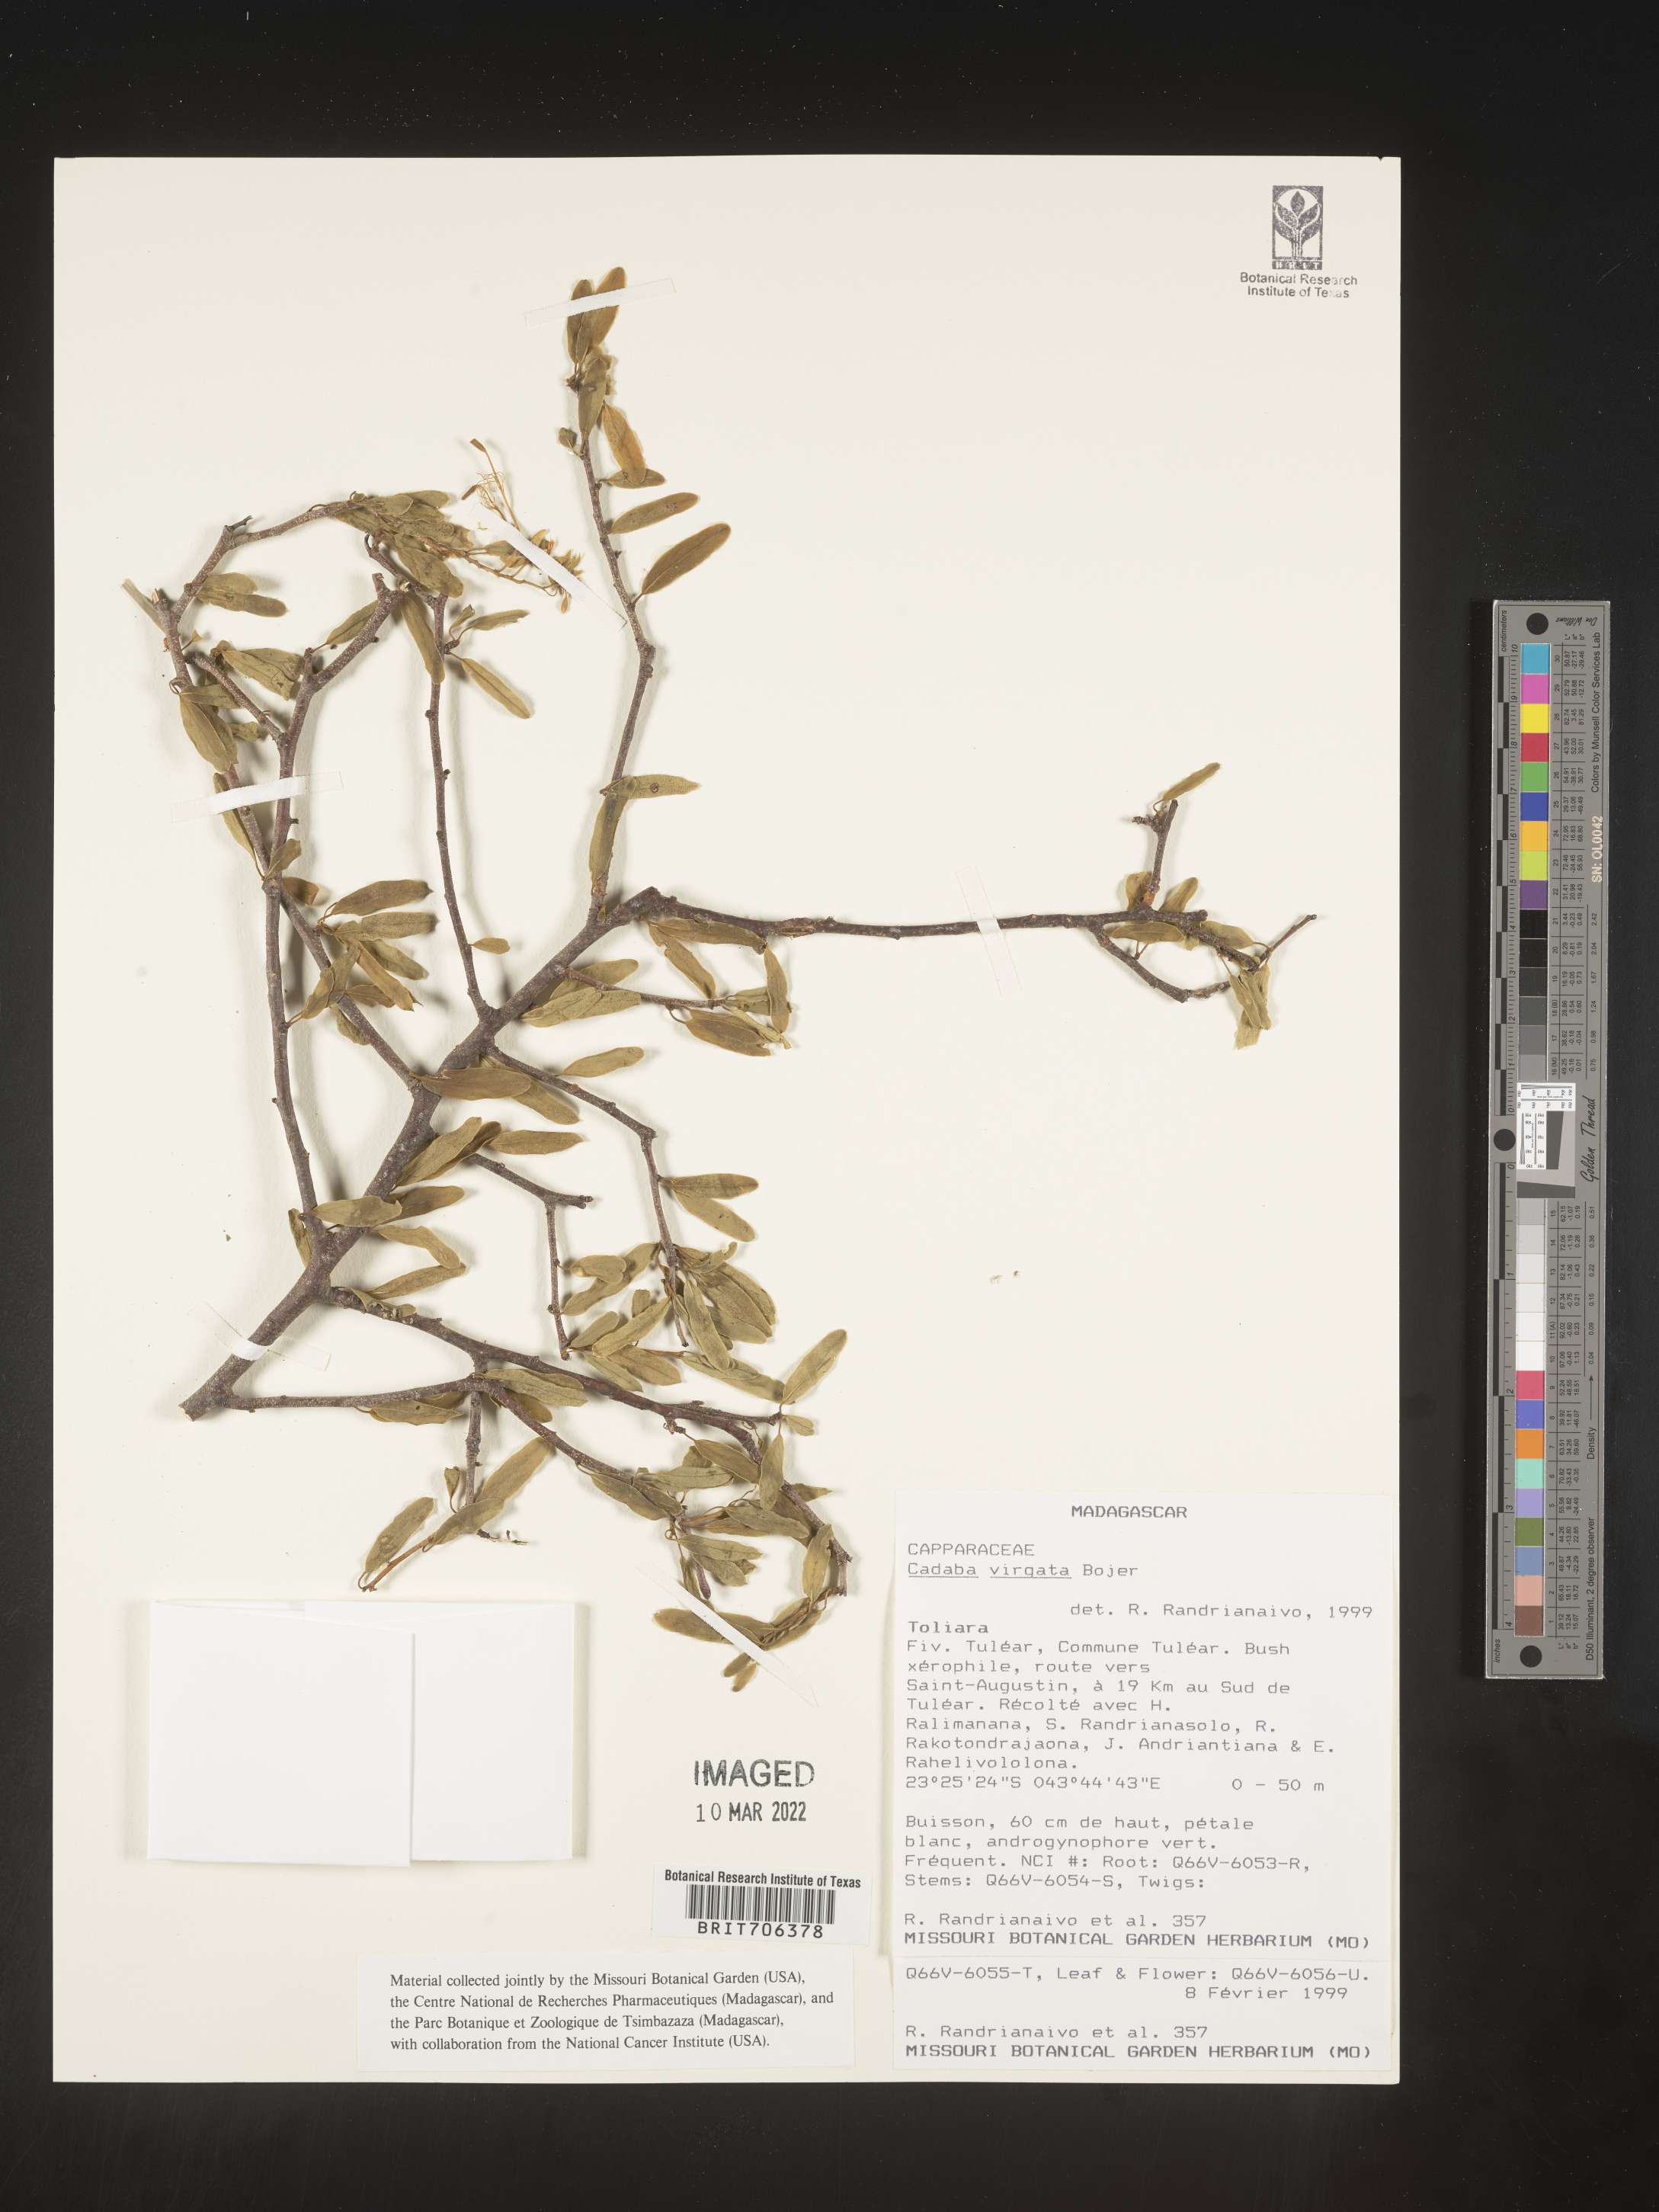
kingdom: Plantae
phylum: Tracheophyta
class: Magnoliopsida
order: Brassicales
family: Capparaceae
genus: Cadaba
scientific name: Cadaba
